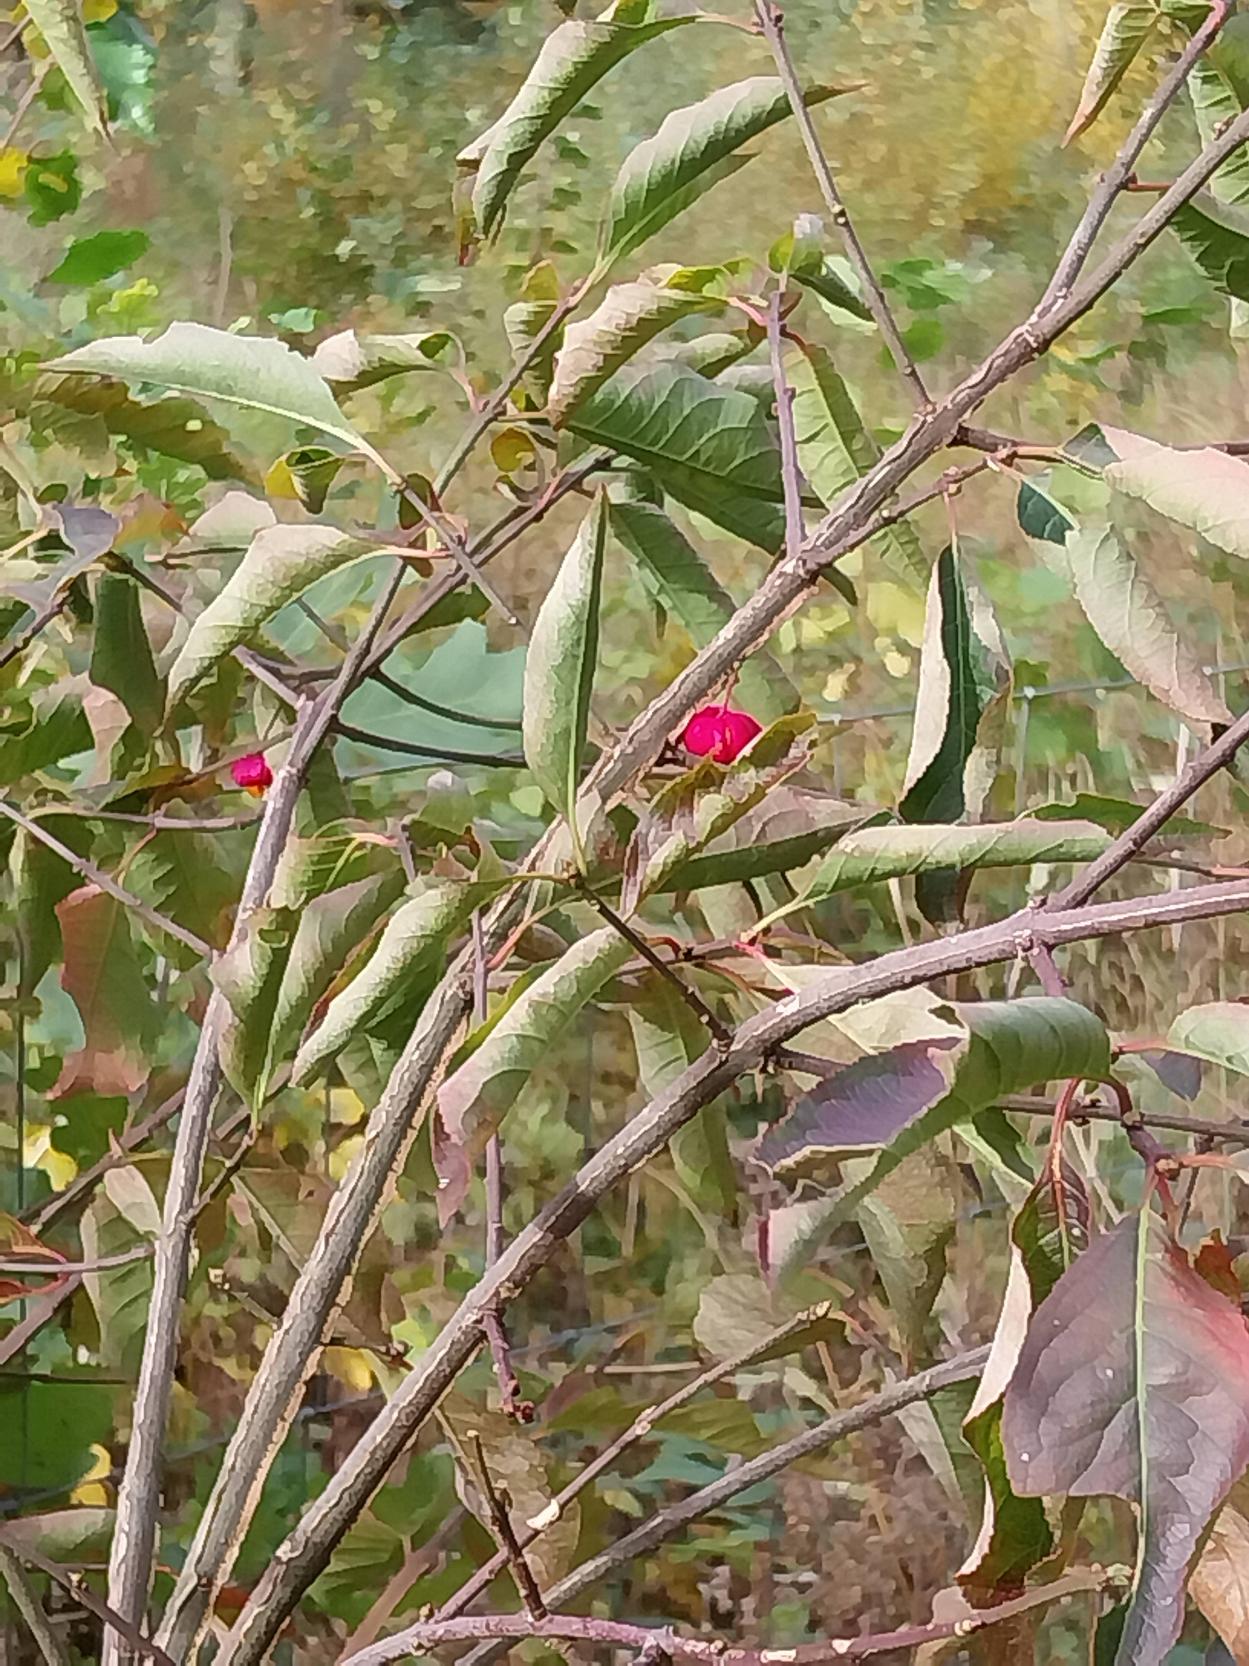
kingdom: Plantae
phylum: Tracheophyta
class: Magnoliopsida
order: Celastrales
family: Celastraceae
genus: Euonymus
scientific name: Euonymus europaeus
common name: Benved
